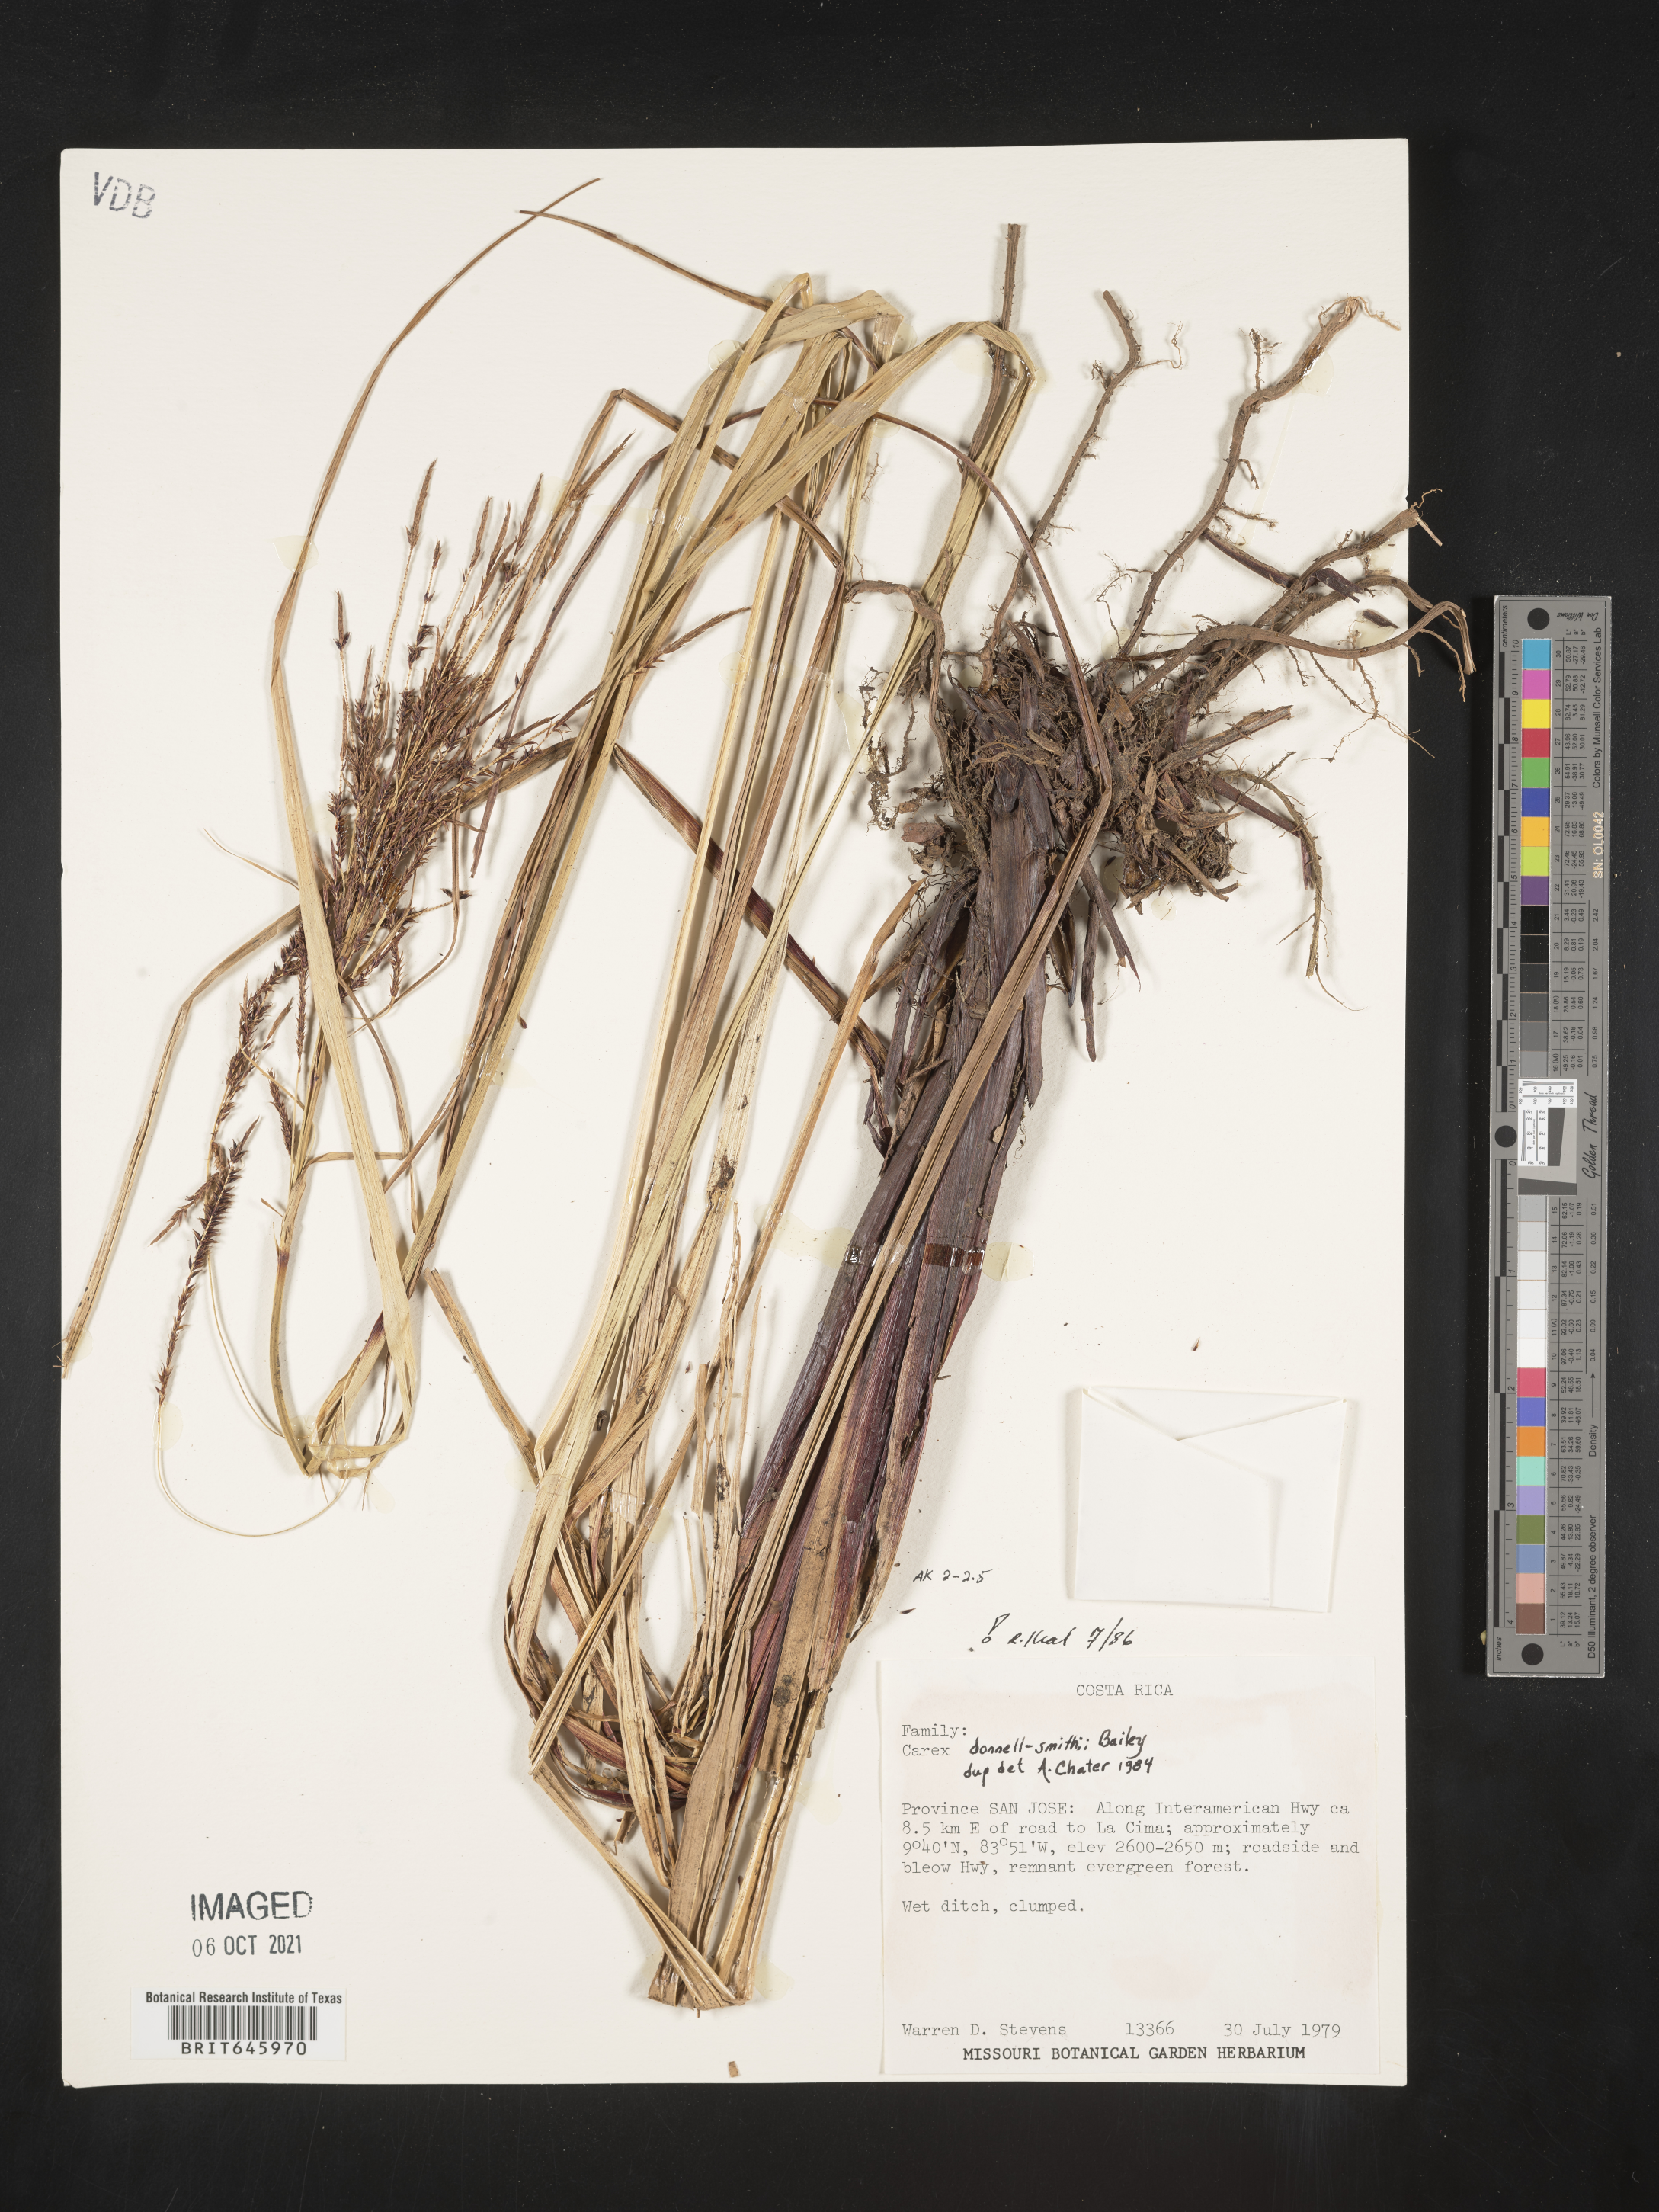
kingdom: Plantae
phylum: Tracheophyta
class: Liliopsida
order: Poales
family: Cyperaceae
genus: Carex
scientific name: Carex donnell-smithii
